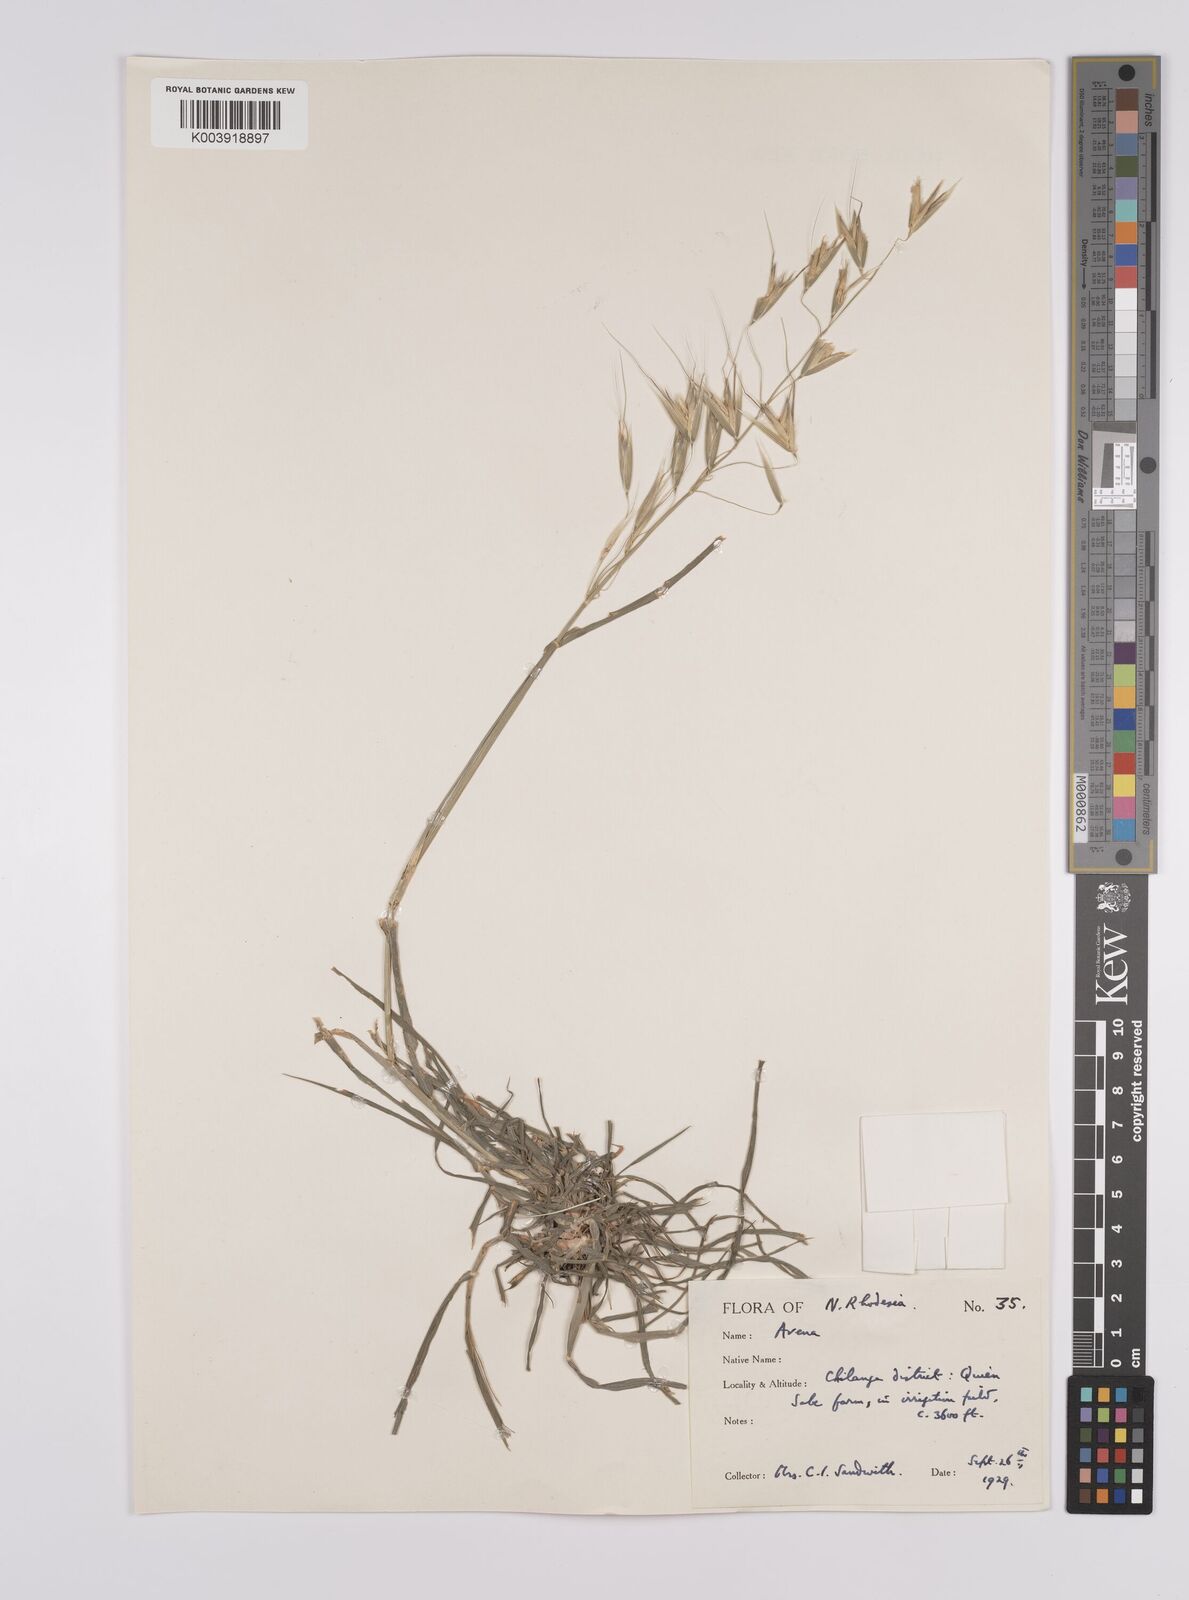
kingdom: Plantae
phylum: Tracheophyta
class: Liliopsida
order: Poales
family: Poaceae
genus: Avena
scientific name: Avena byzantina
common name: Algerian oat
